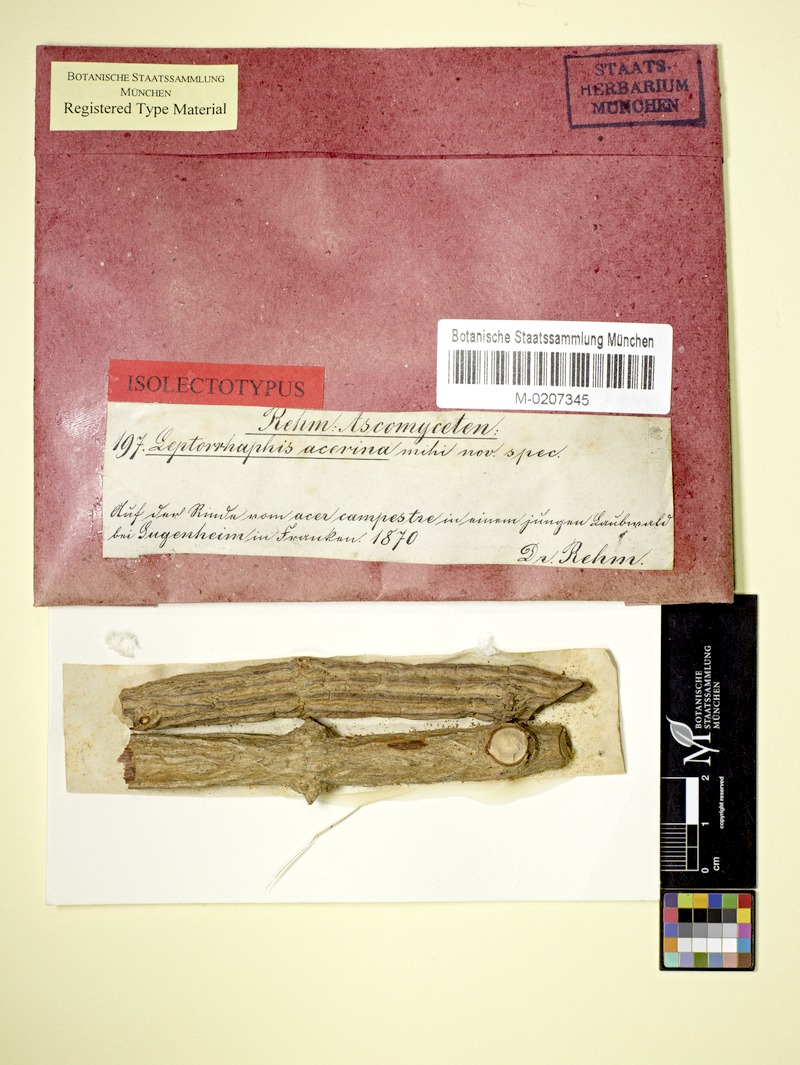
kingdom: Fungi
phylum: Ascomycota
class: Sordariomycetes
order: Xylariales
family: Leptosilliaceae
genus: Leptosillia
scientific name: Leptosillia acerina
